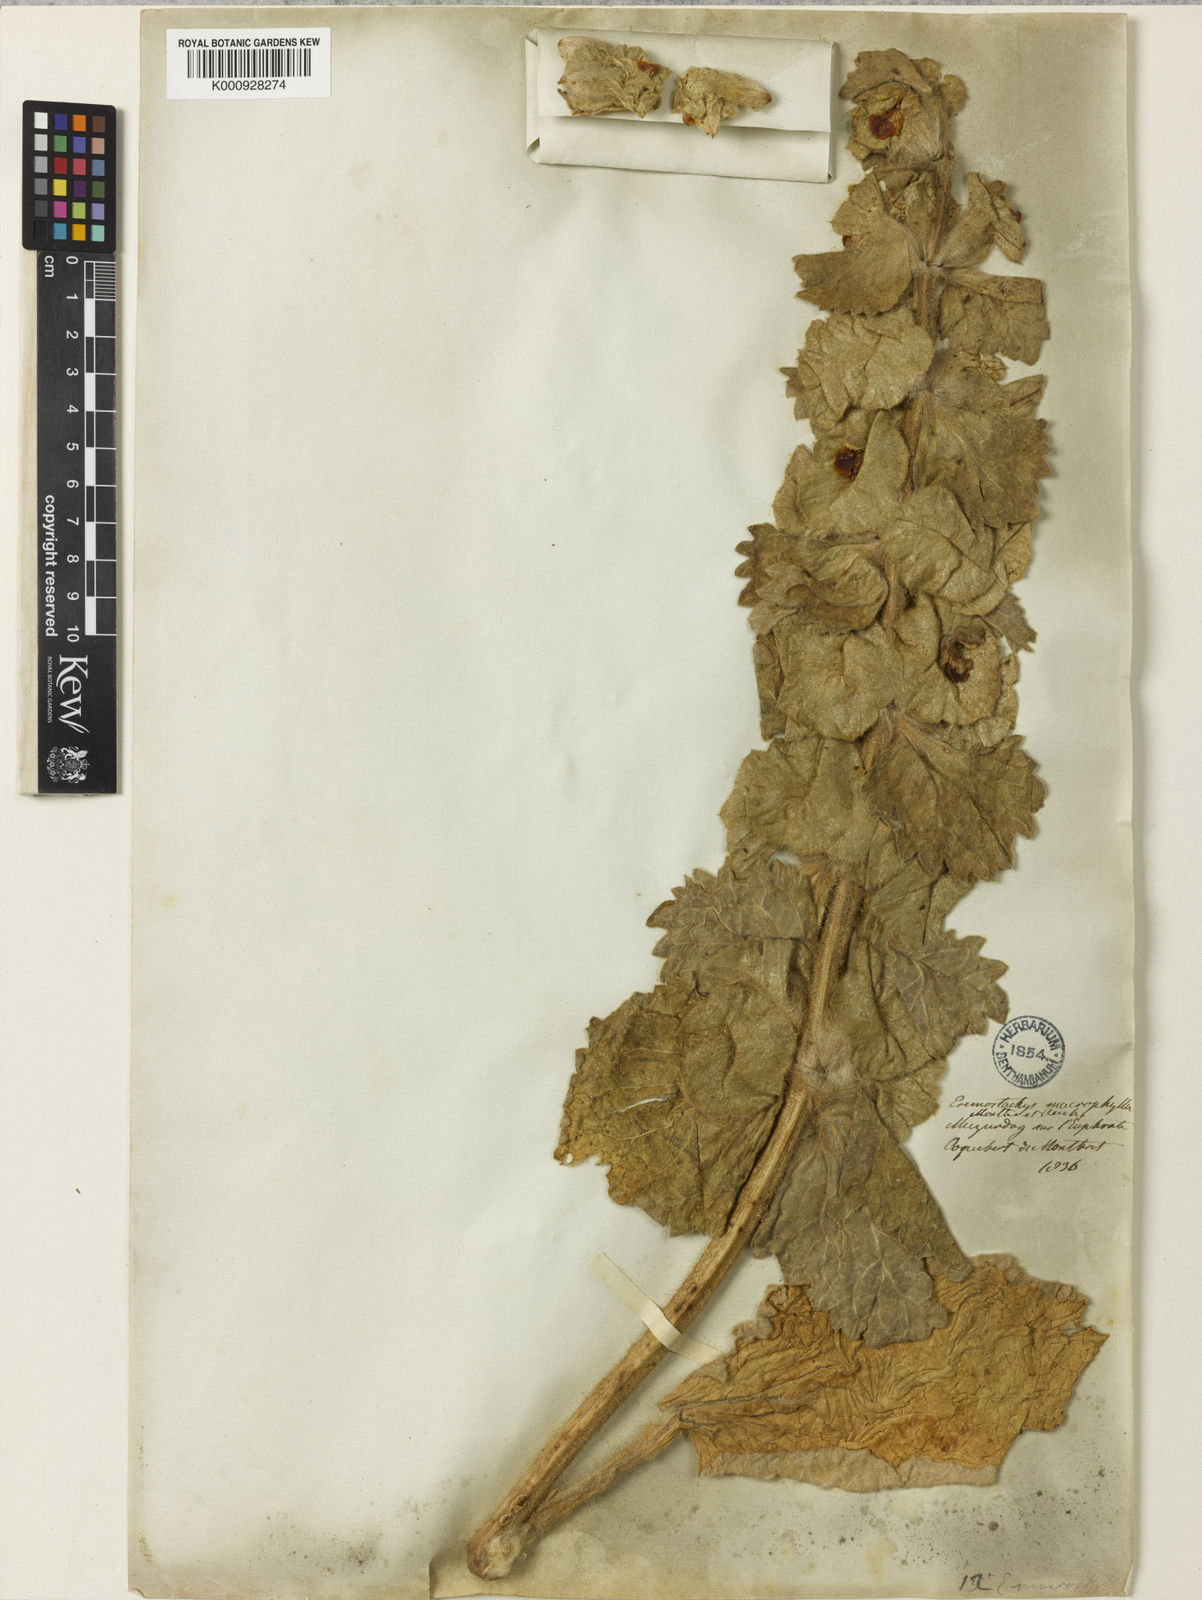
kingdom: Plantae
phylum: Tracheophyta
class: Magnoliopsida
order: Lamiales
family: Lamiaceae
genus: Phlomoides
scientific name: Phlomoides
